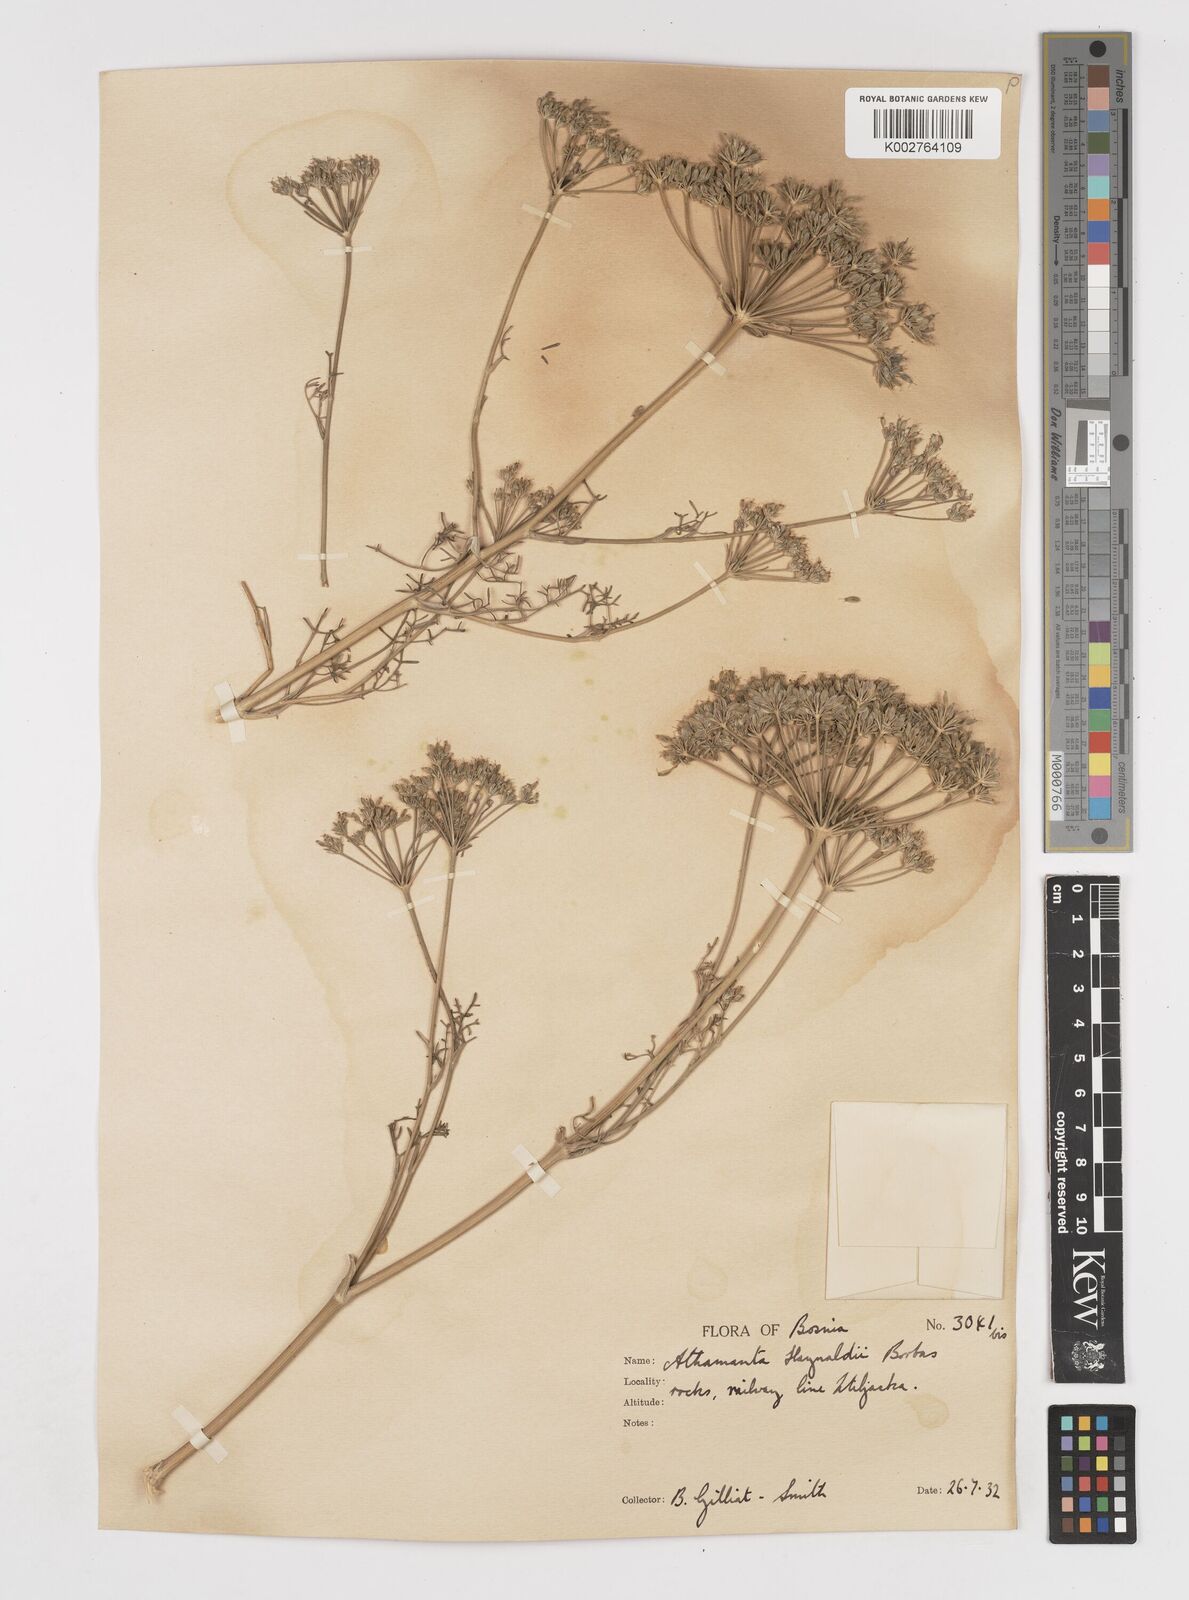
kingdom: Plantae
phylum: Tracheophyta
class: Magnoliopsida
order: Apiales
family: Apiaceae
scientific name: Apiaceae
